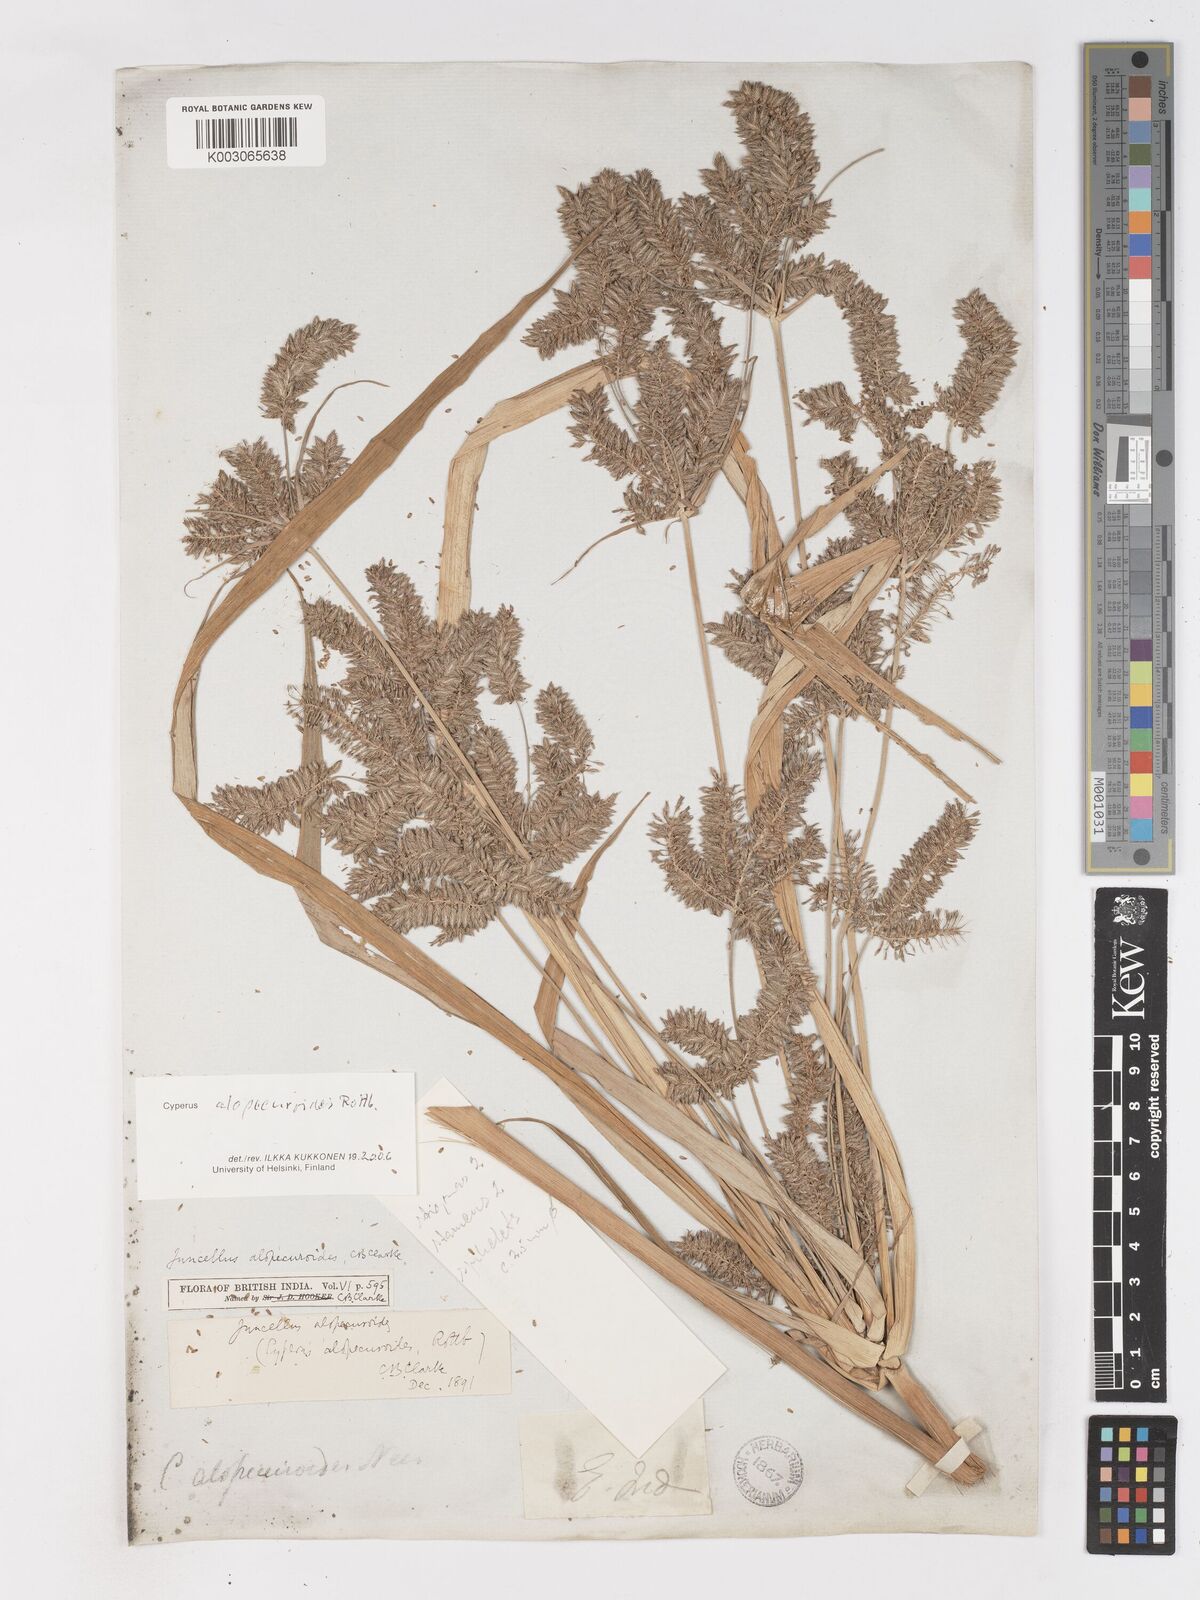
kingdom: Plantae
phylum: Tracheophyta
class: Liliopsida
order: Poales
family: Cyperaceae
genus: Cyperus
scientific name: Cyperus alopecuroides
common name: Foxtail flatsedge
